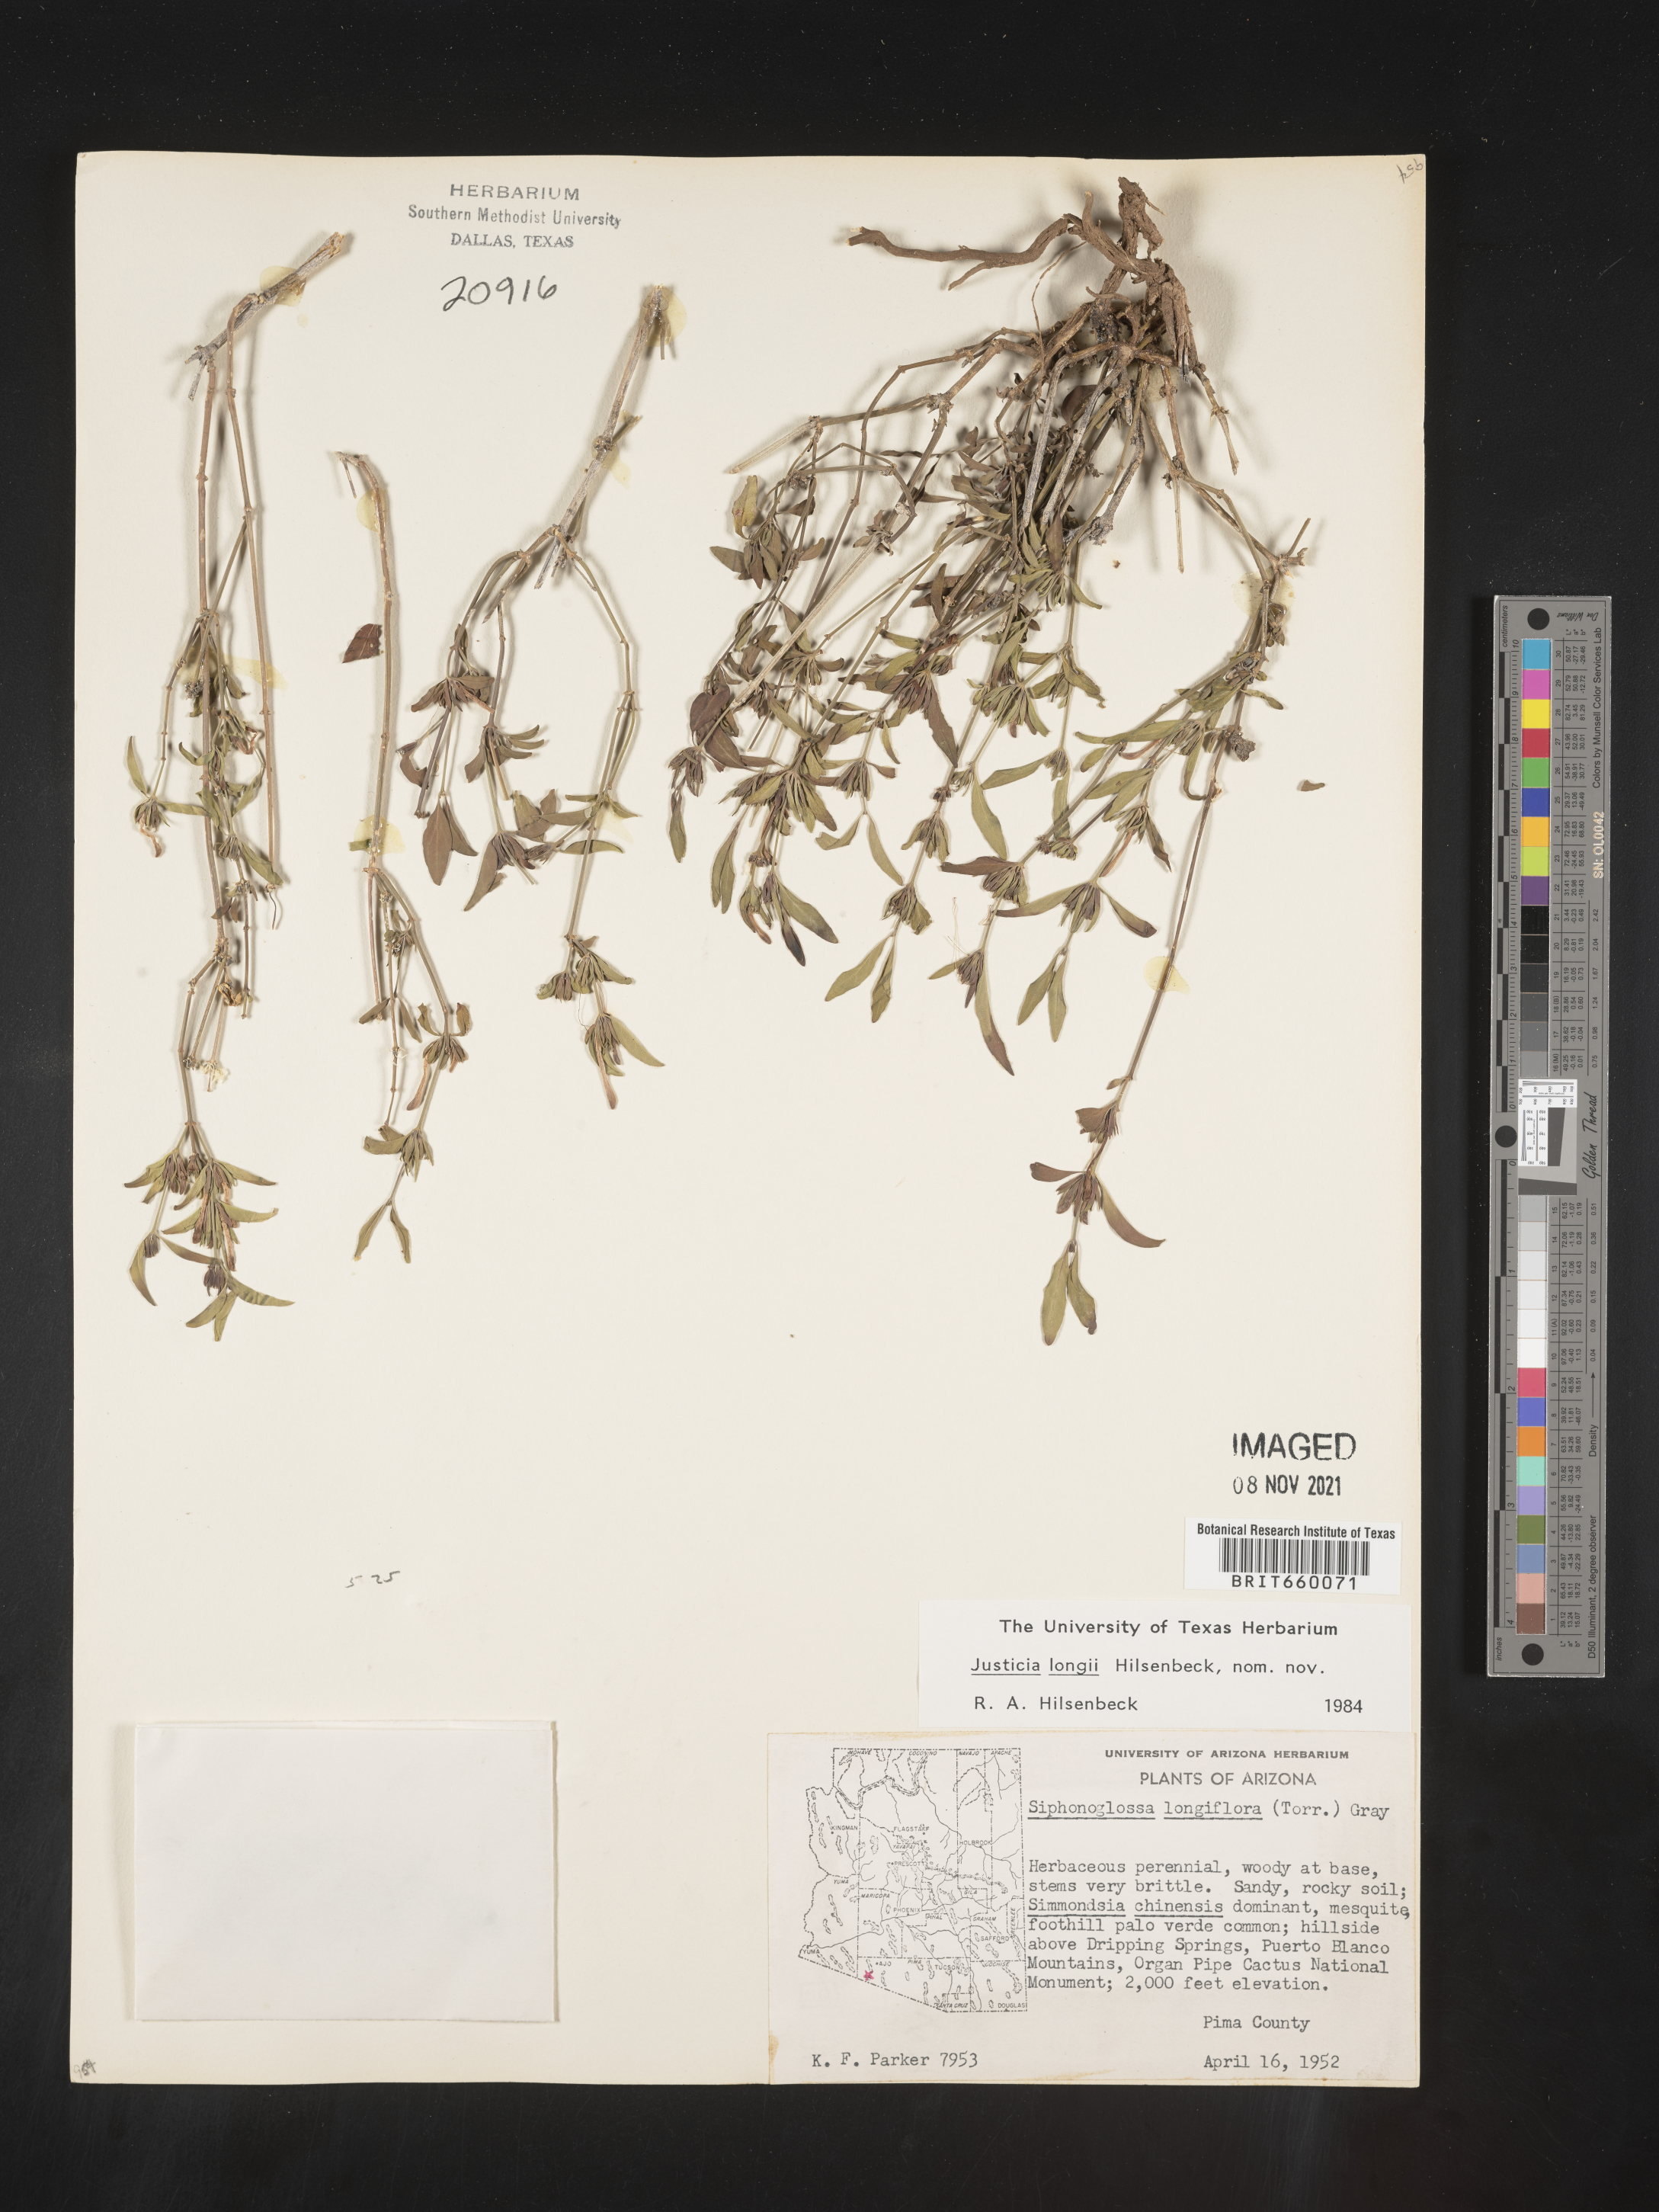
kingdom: Plantae
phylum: Tracheophyta
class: Magnoliopsida
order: Lamiales
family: Acanthaceae
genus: Justicia
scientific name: Justicia longii
